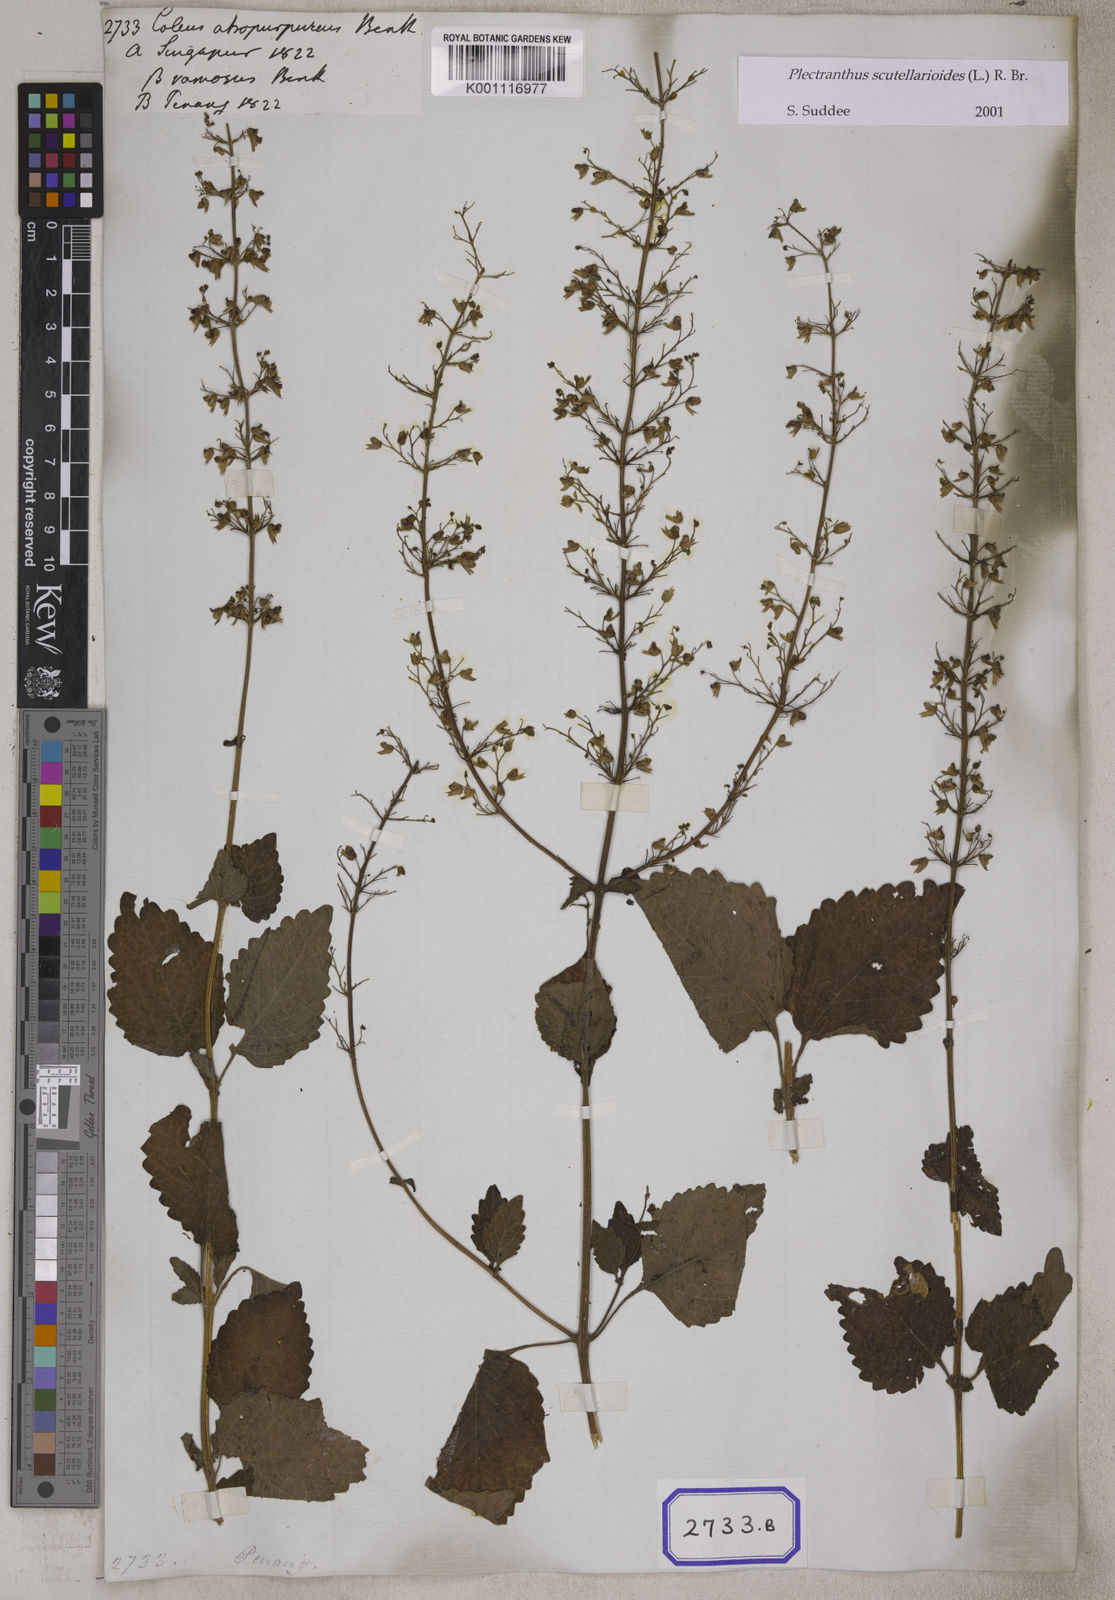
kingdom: Plantae
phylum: Tracheophyta
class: Magnoliopsida
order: Lamiales
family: Lamiaceae
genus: Coleus
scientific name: Coleus
